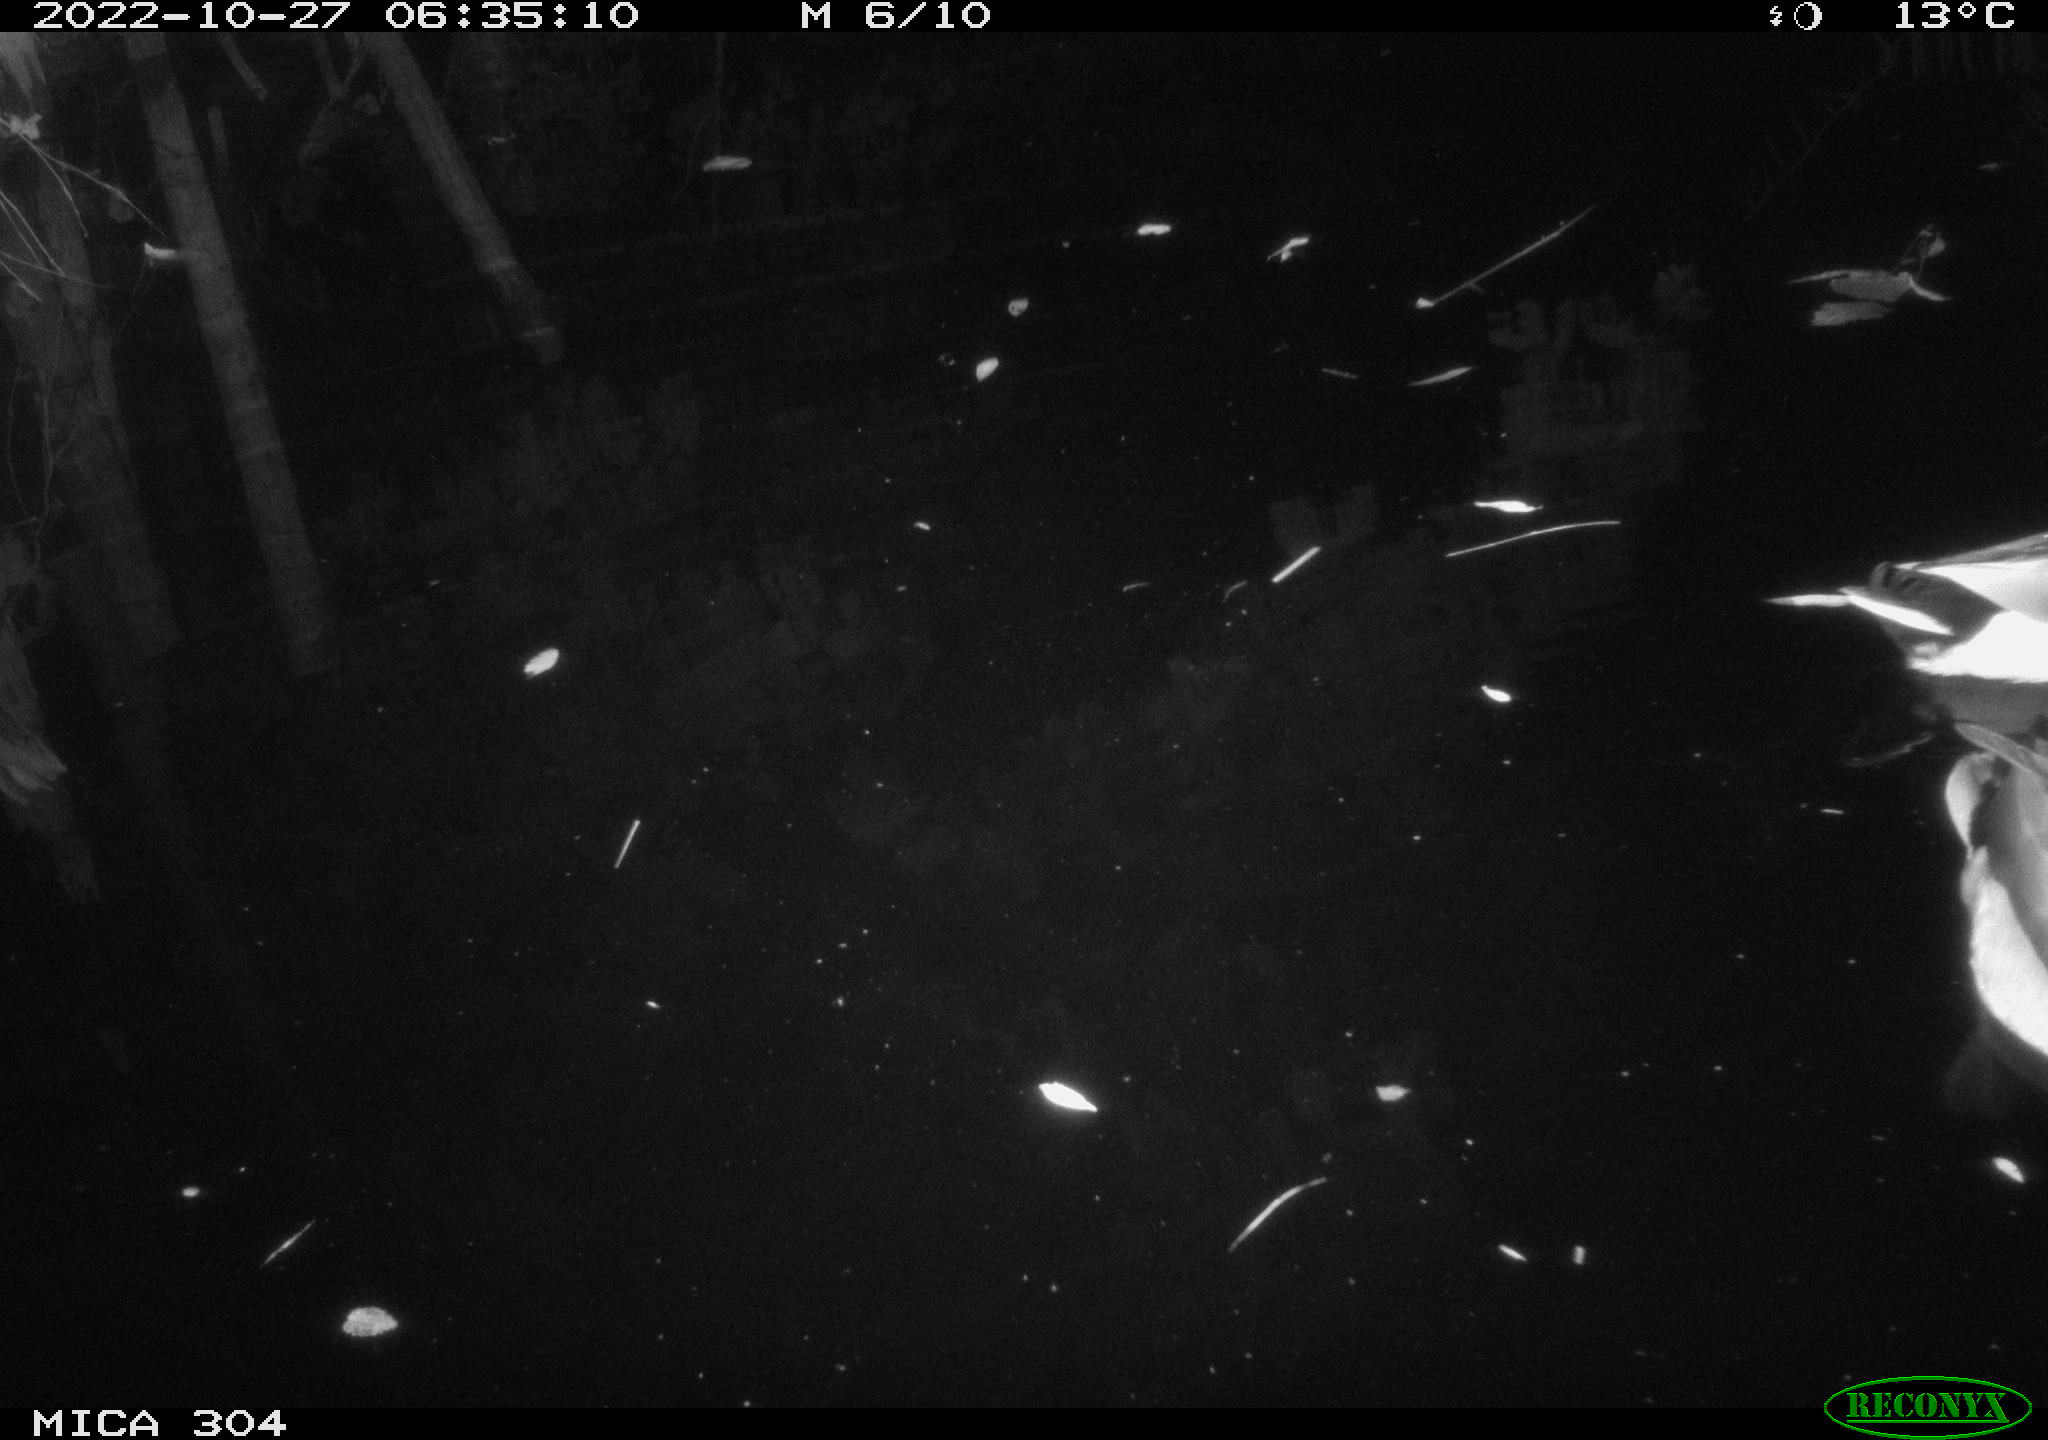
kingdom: Animalia
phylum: Chordata
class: Aves
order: Anseriformes
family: Anatidae
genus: Anas
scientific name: Anas
